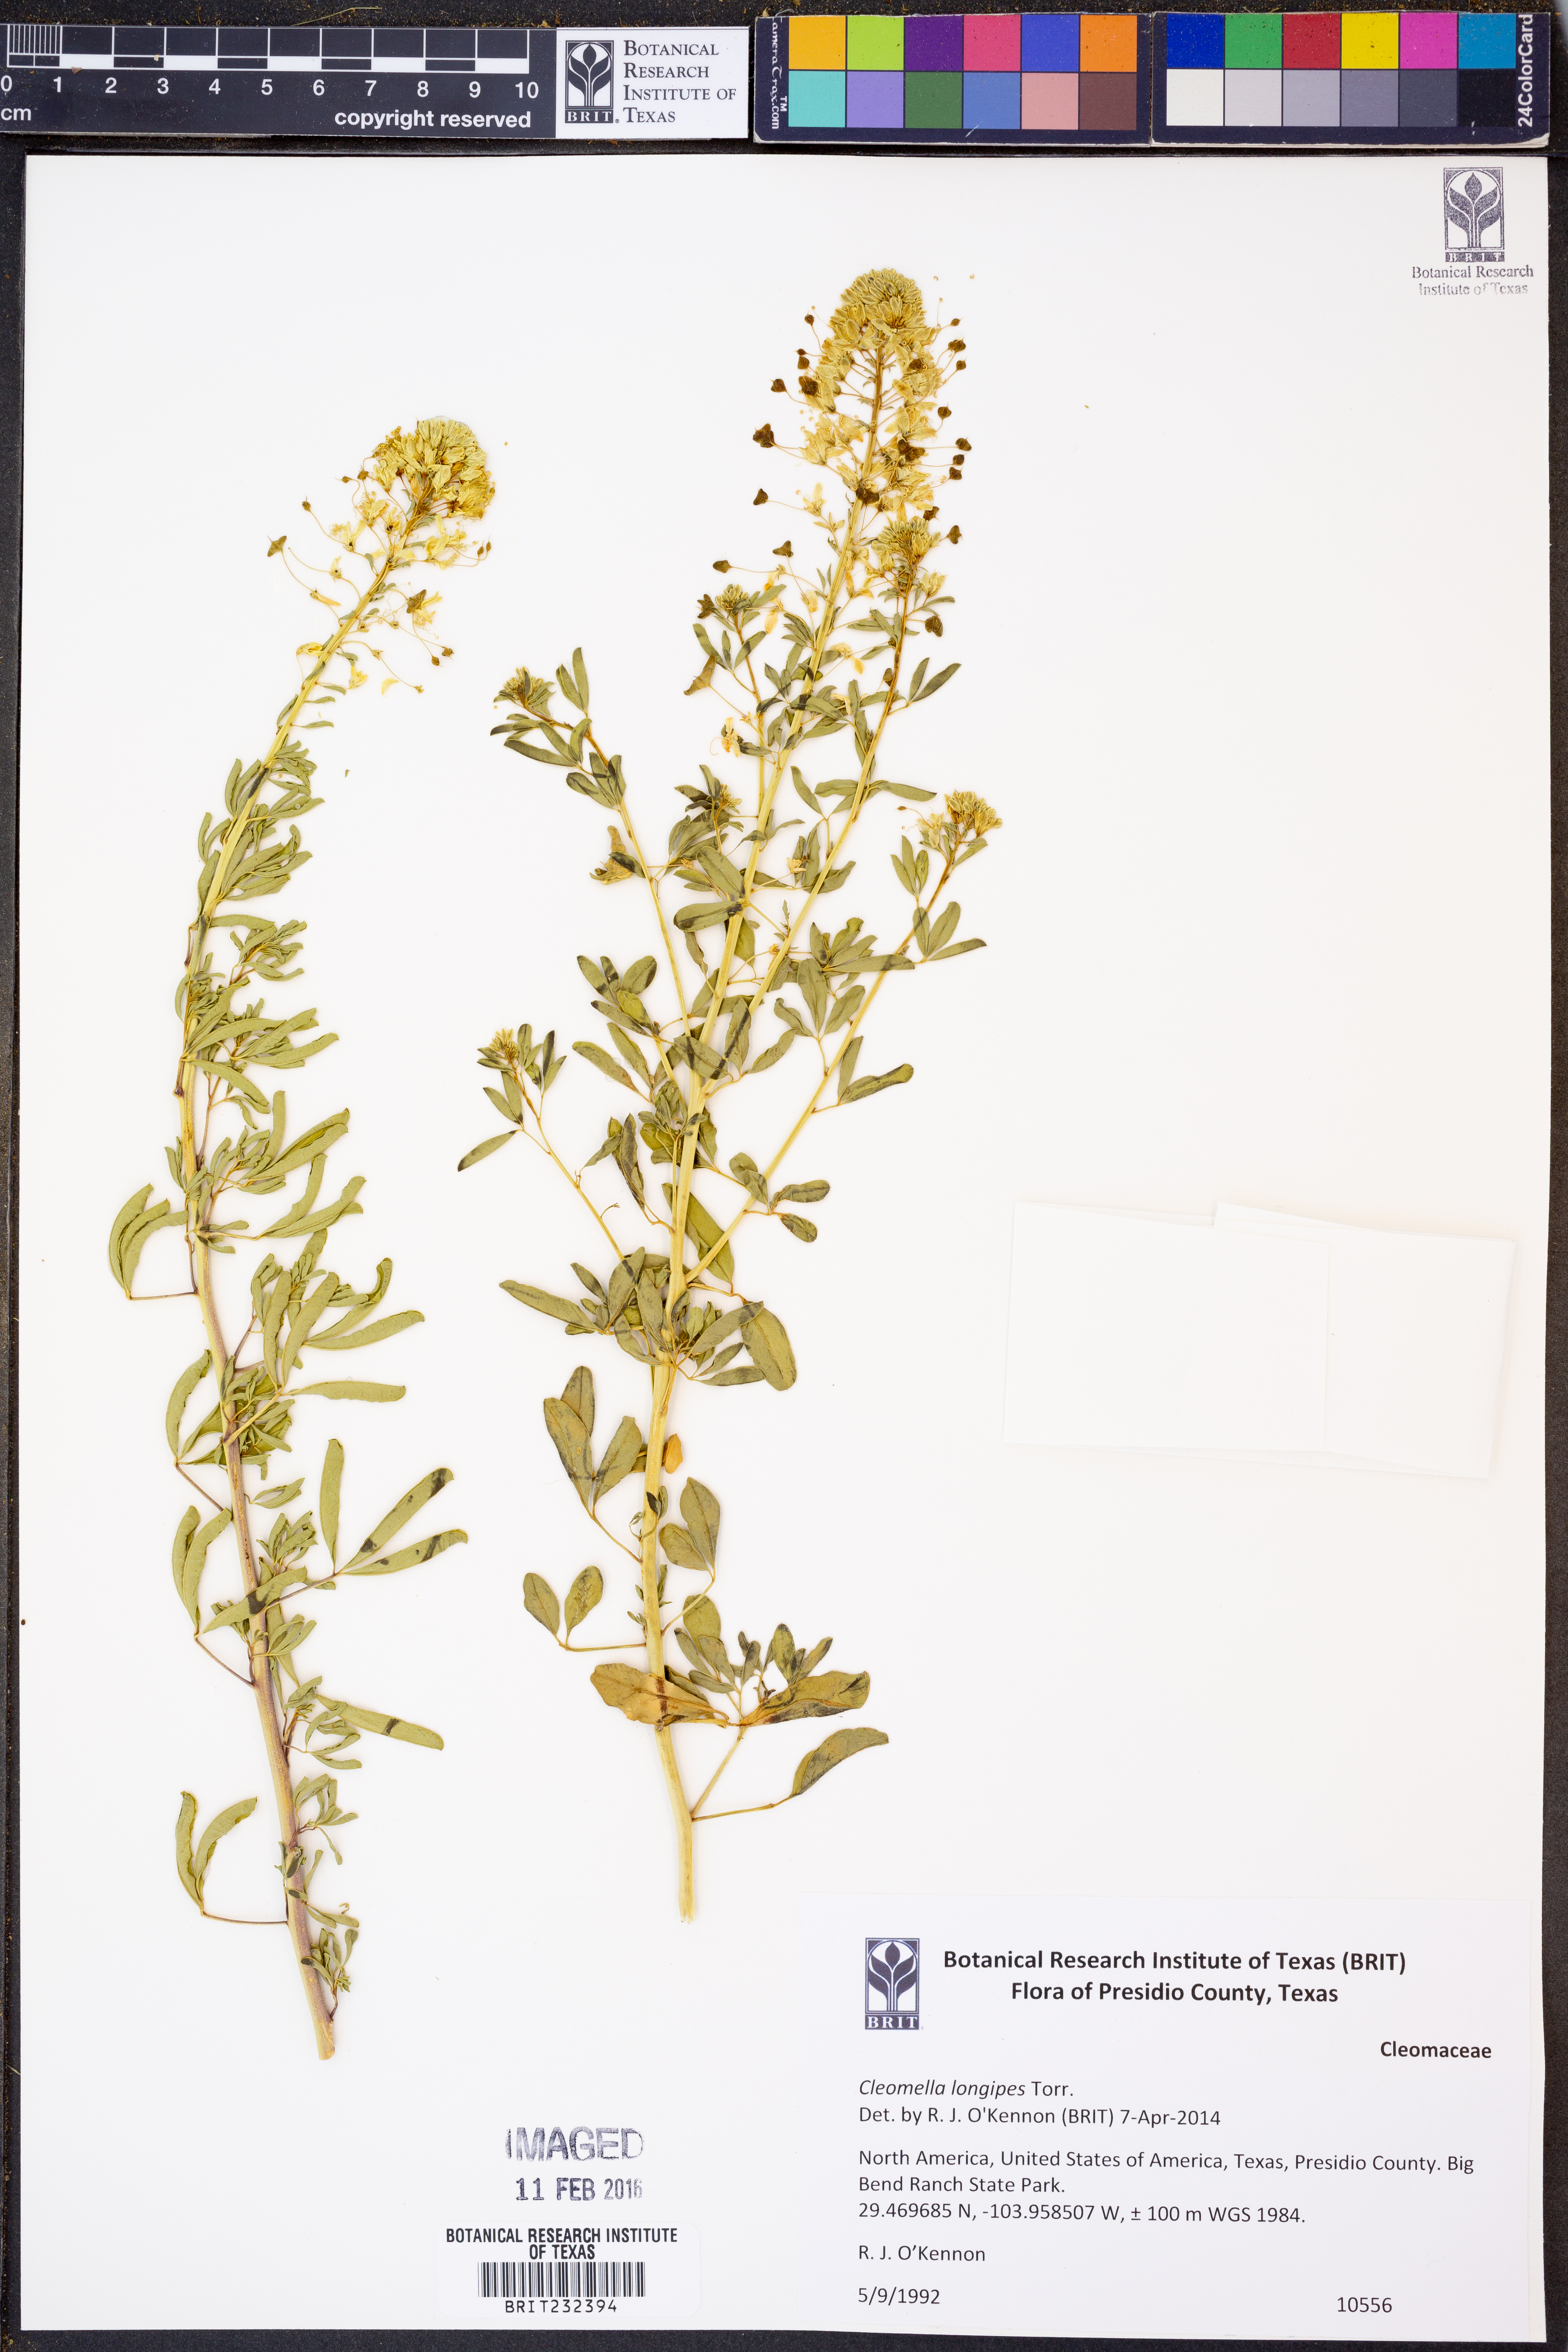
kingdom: Plantae
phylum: Tracheophyta
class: Magnoliopsida
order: Brassicales
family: Cleomaceae
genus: Cleomella
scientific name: Cleomella longipes
